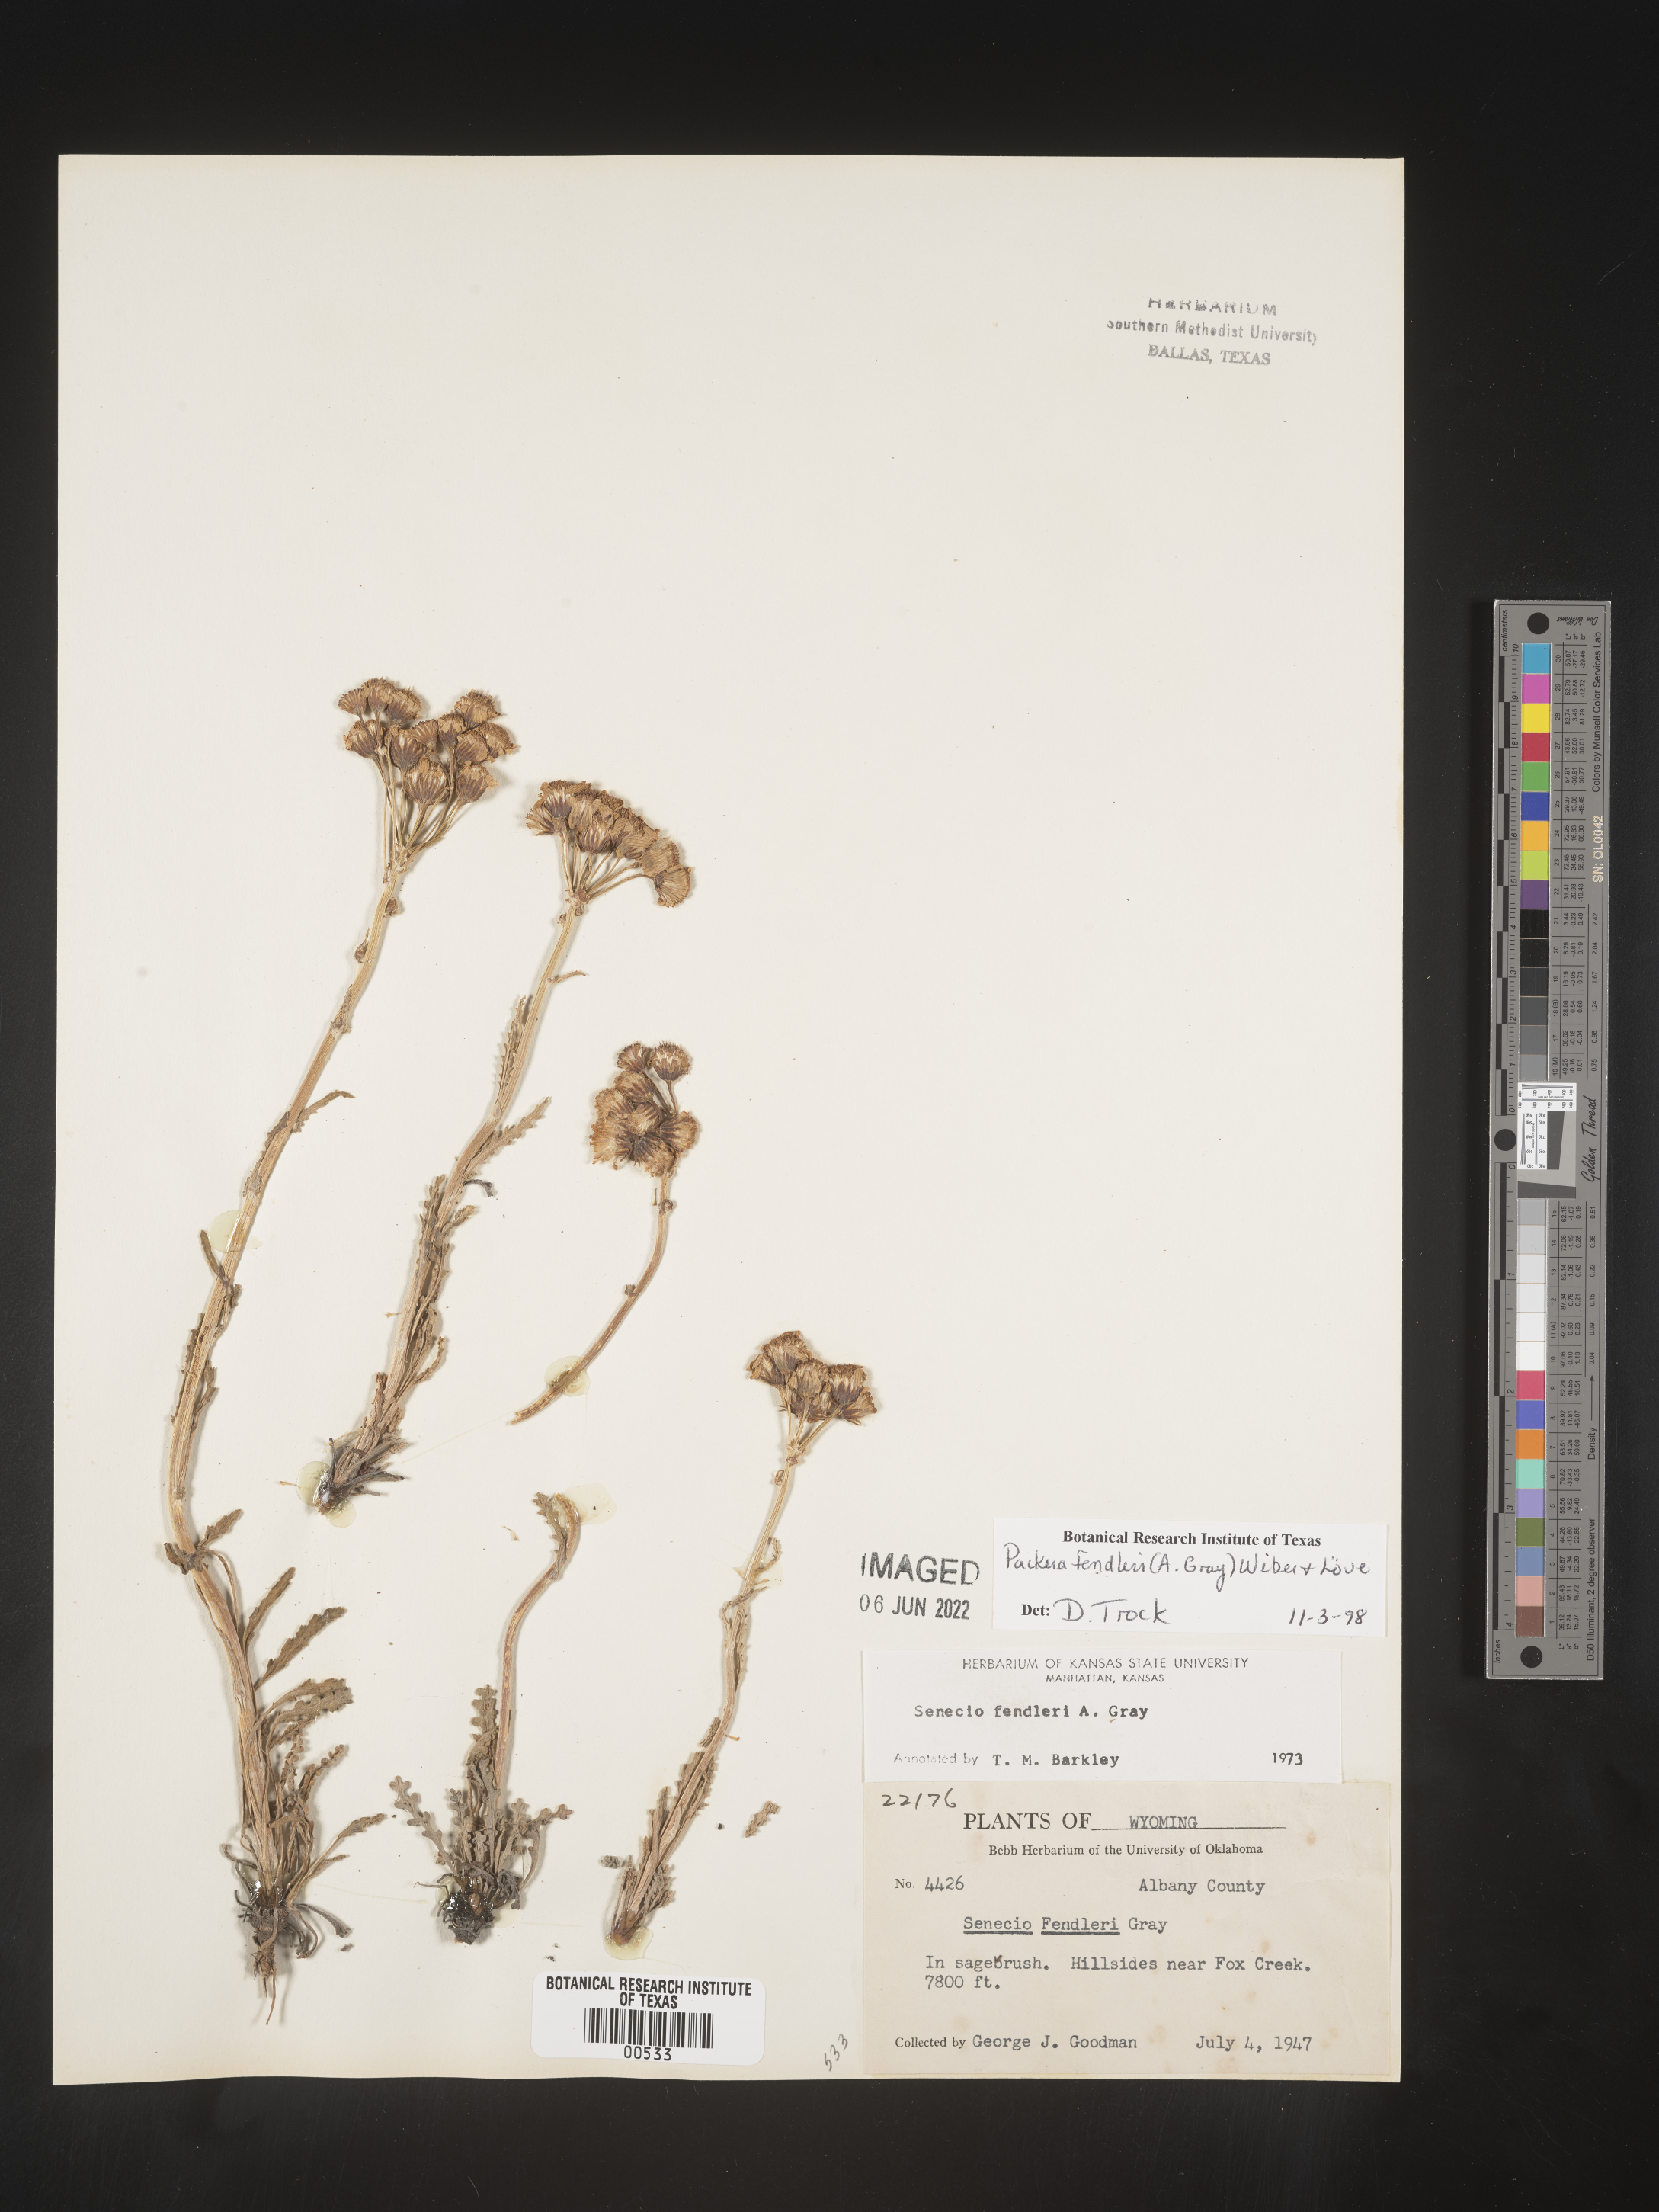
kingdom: Plantae
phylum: Tracheophyta
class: Magnoliopsida
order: Asterales
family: Asteraceae
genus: Packera
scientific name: Packera fendleri
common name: Notch-leaf butterweed
